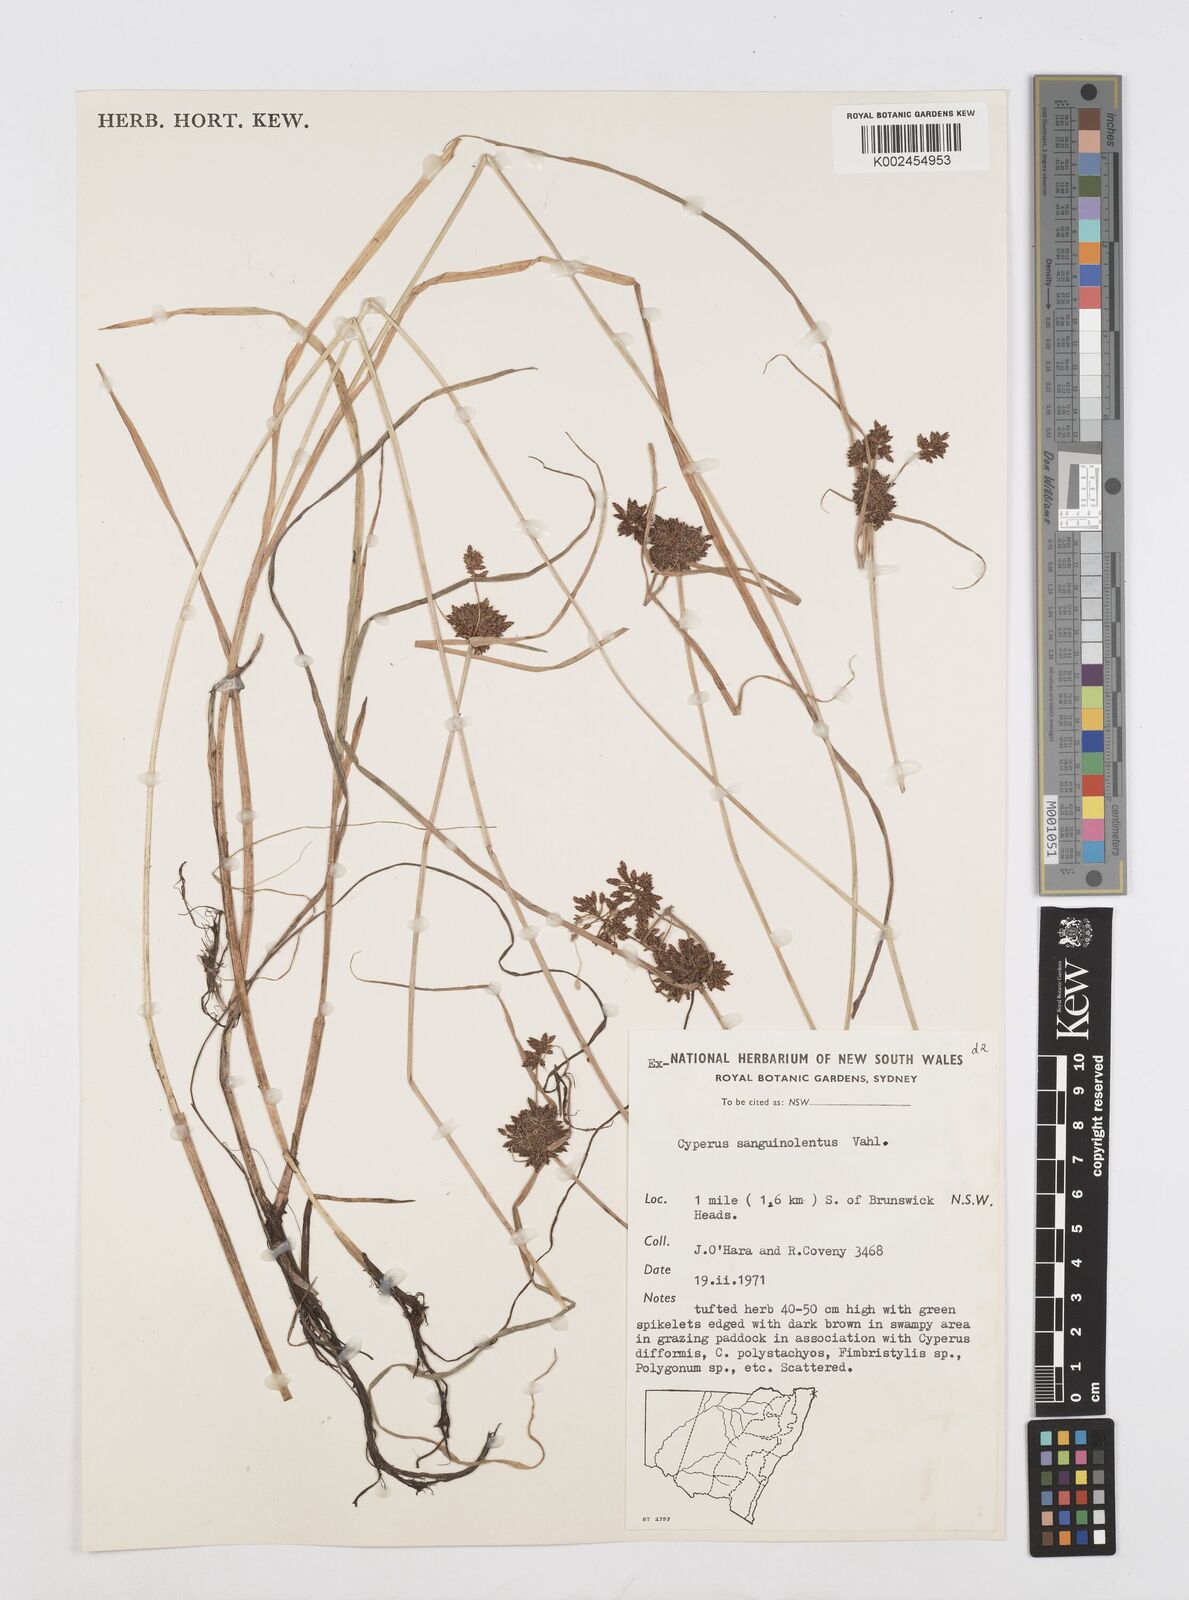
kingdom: Plantae
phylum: Tracheophyta
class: Liliopsida
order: Poales
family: Cyperaceae
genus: Cyperus
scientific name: Cyperus sanguinolentus
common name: Purpleglume flatsedge
